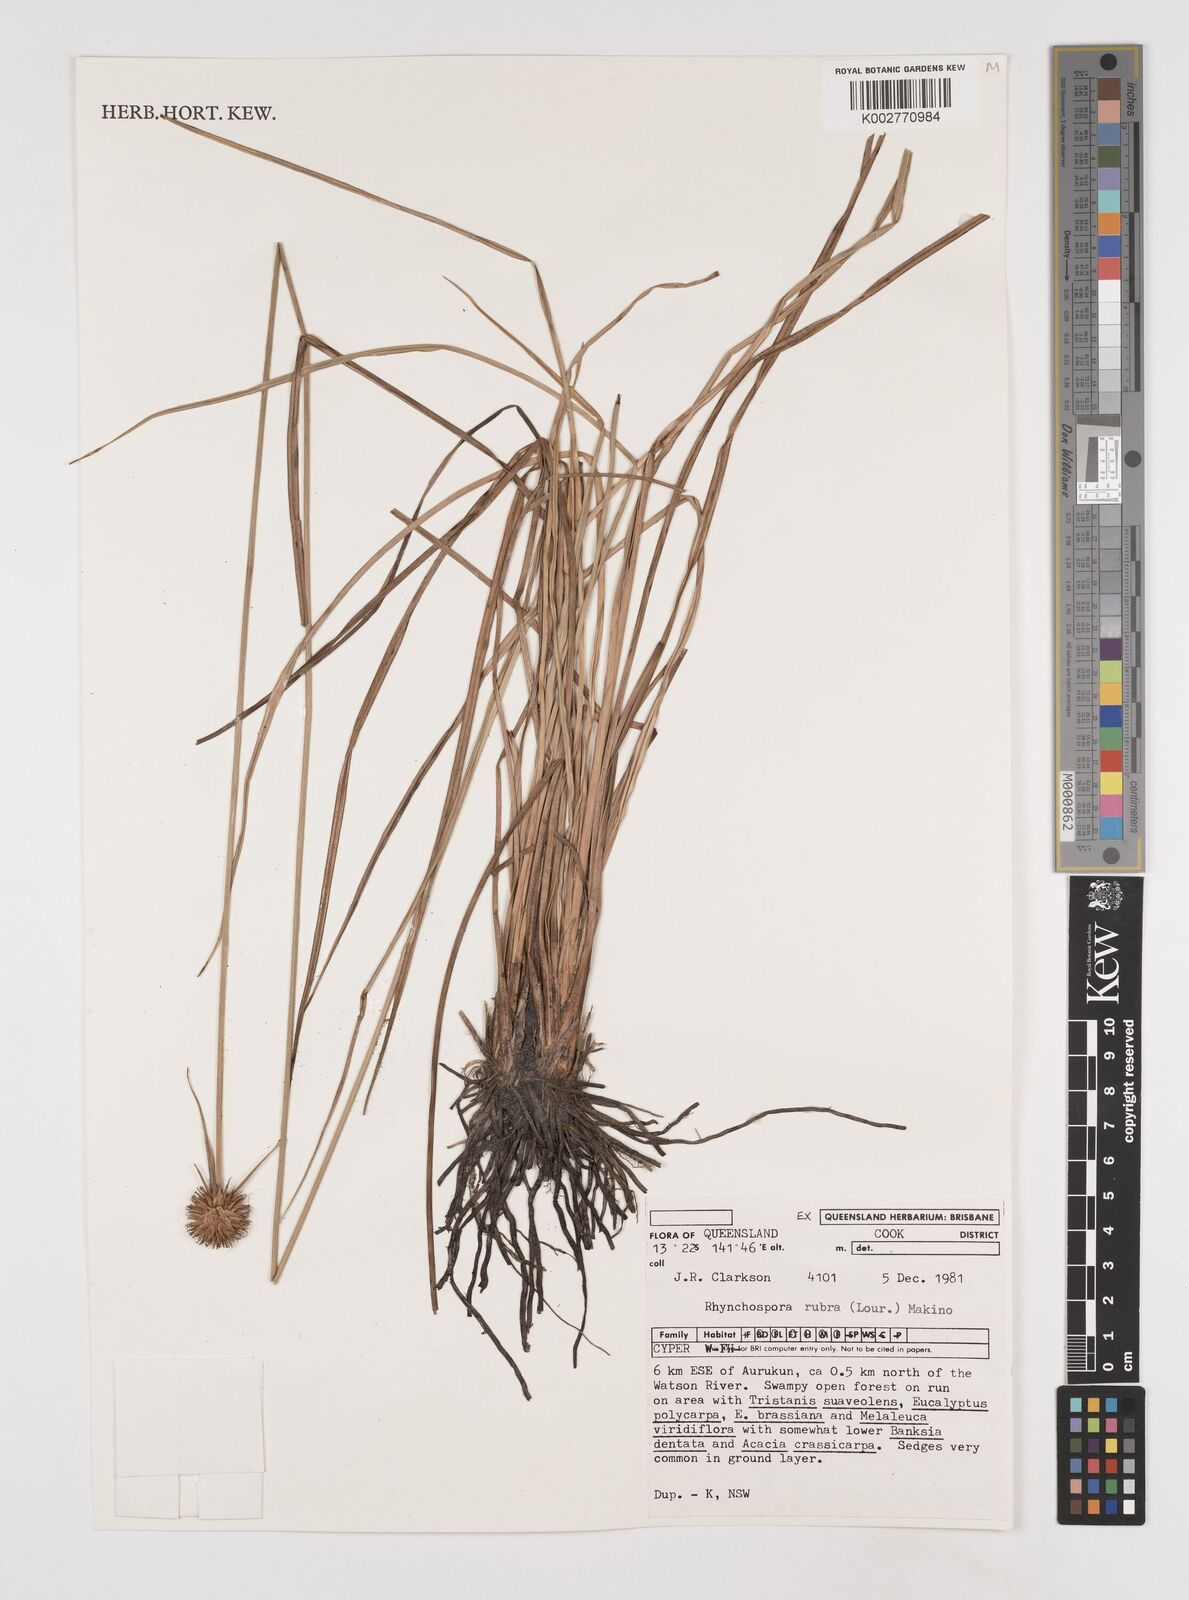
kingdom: Plantae
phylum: Tracheophyta
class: Liliopsida
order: Poales
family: Cyperaceae
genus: Rhynchospora
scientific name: Rhynchospora rubra
